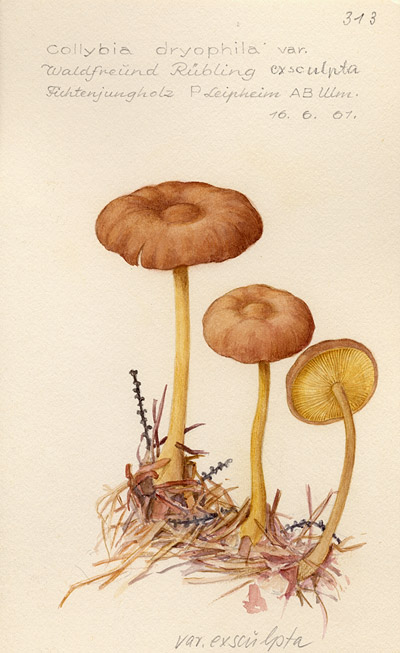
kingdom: Fungi
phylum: Basidiomycota
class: Agaricomycetes
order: Agaricales
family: Omphalotaceae
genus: Gymnopus
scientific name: Gymnopus dryophilus
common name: Penny top
